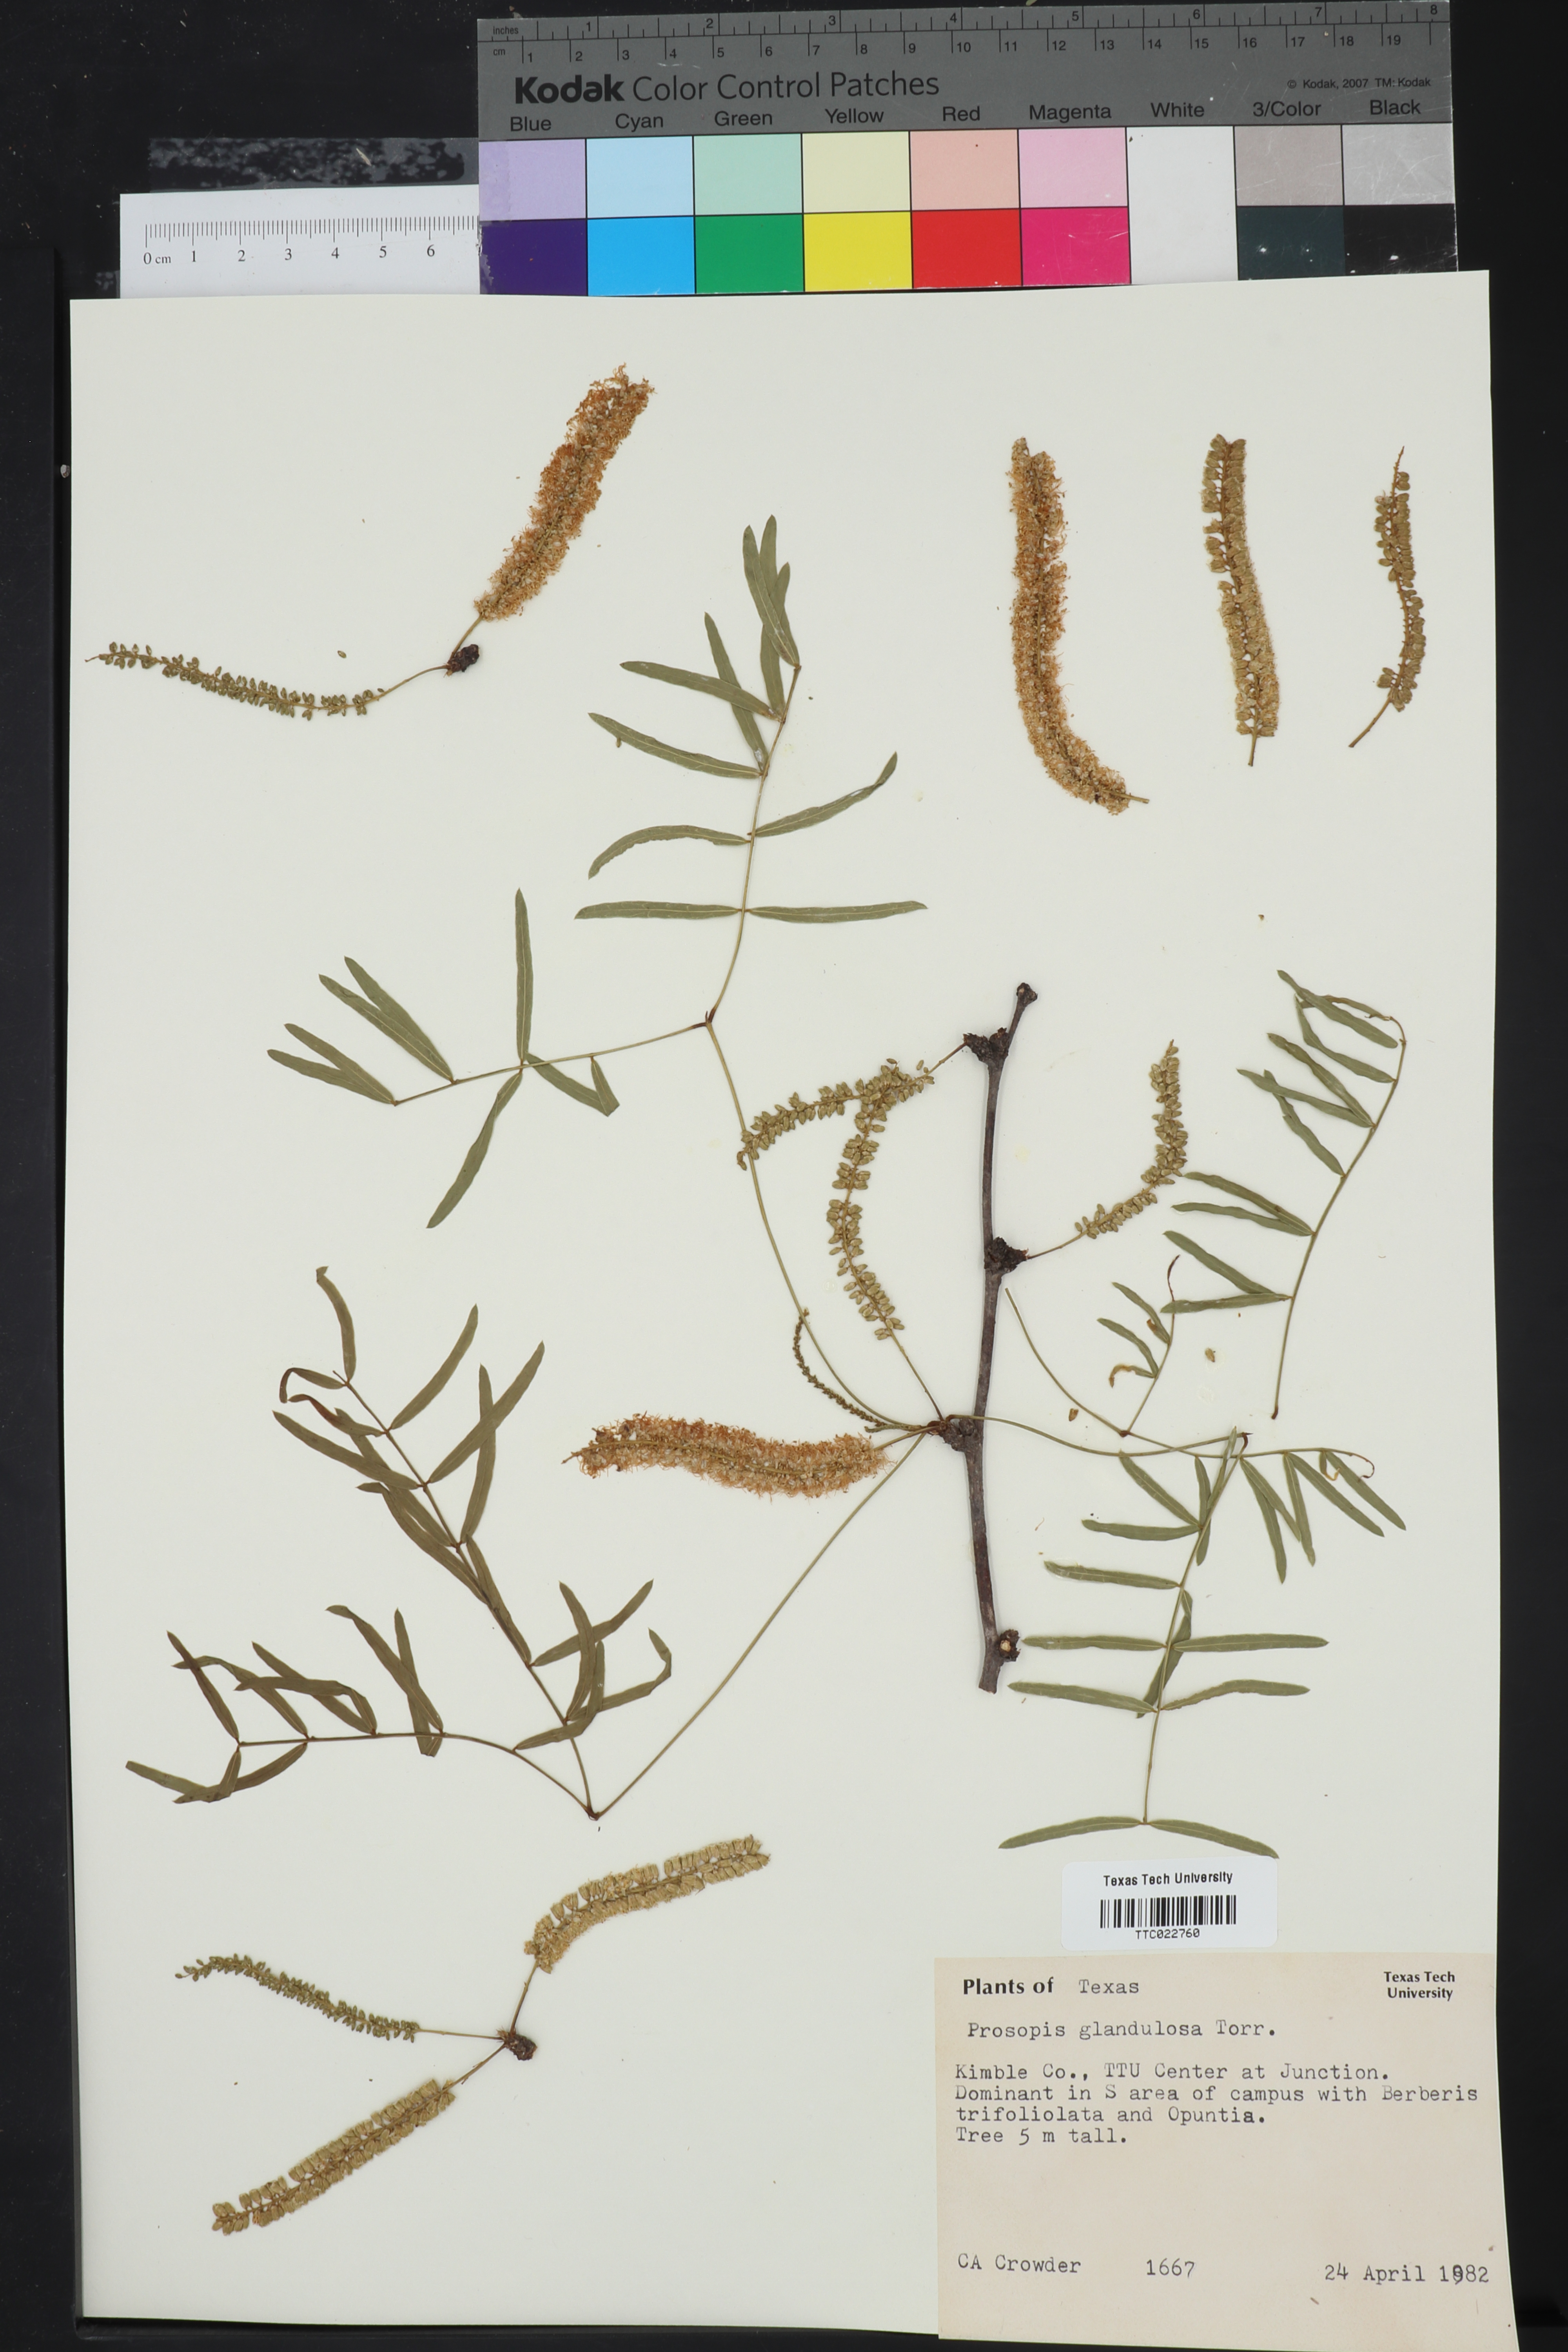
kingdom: Plantae
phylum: Tracheophyta
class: Magnoliopsida
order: Fabales
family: Fabaceae
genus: Prosopis
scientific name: Prosopis glandulosa
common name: Honey mesquite
